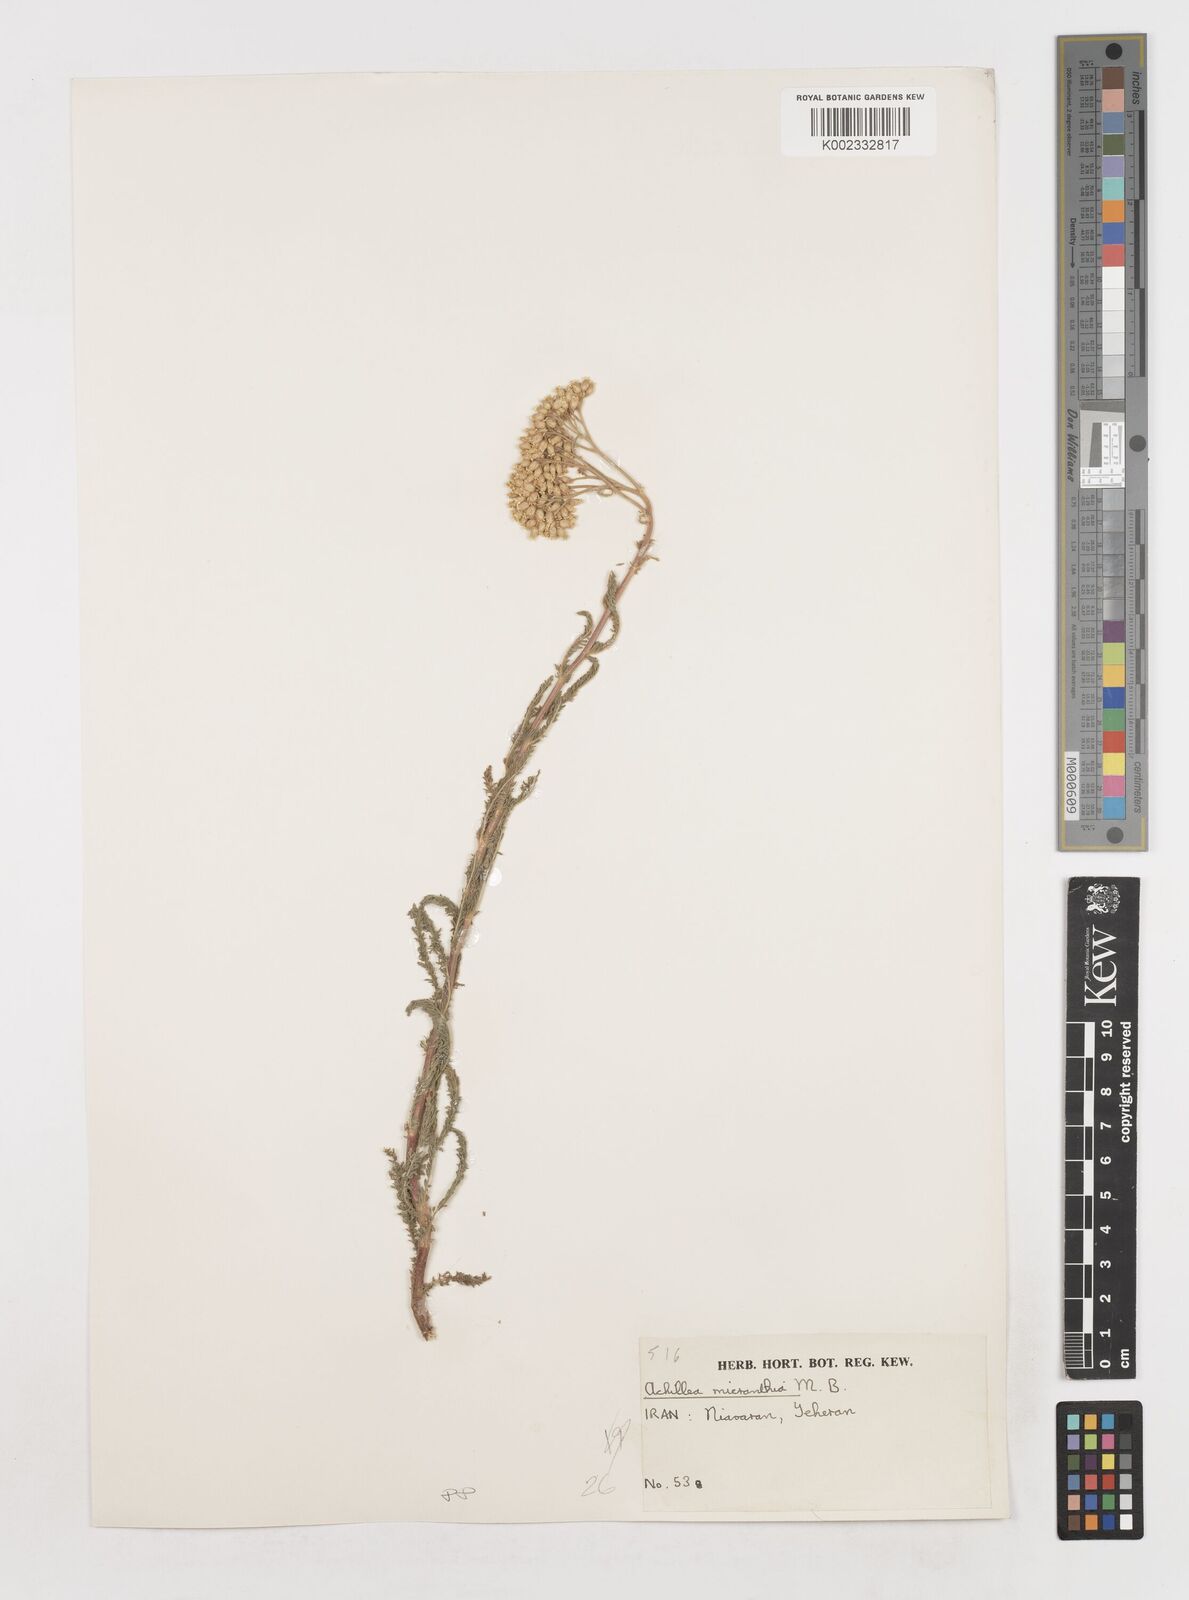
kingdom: Plantae
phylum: Tracheophyta
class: Magnoliopsida
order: Asterales
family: Asteraceae
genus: Achillea
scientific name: Achillea arabica
